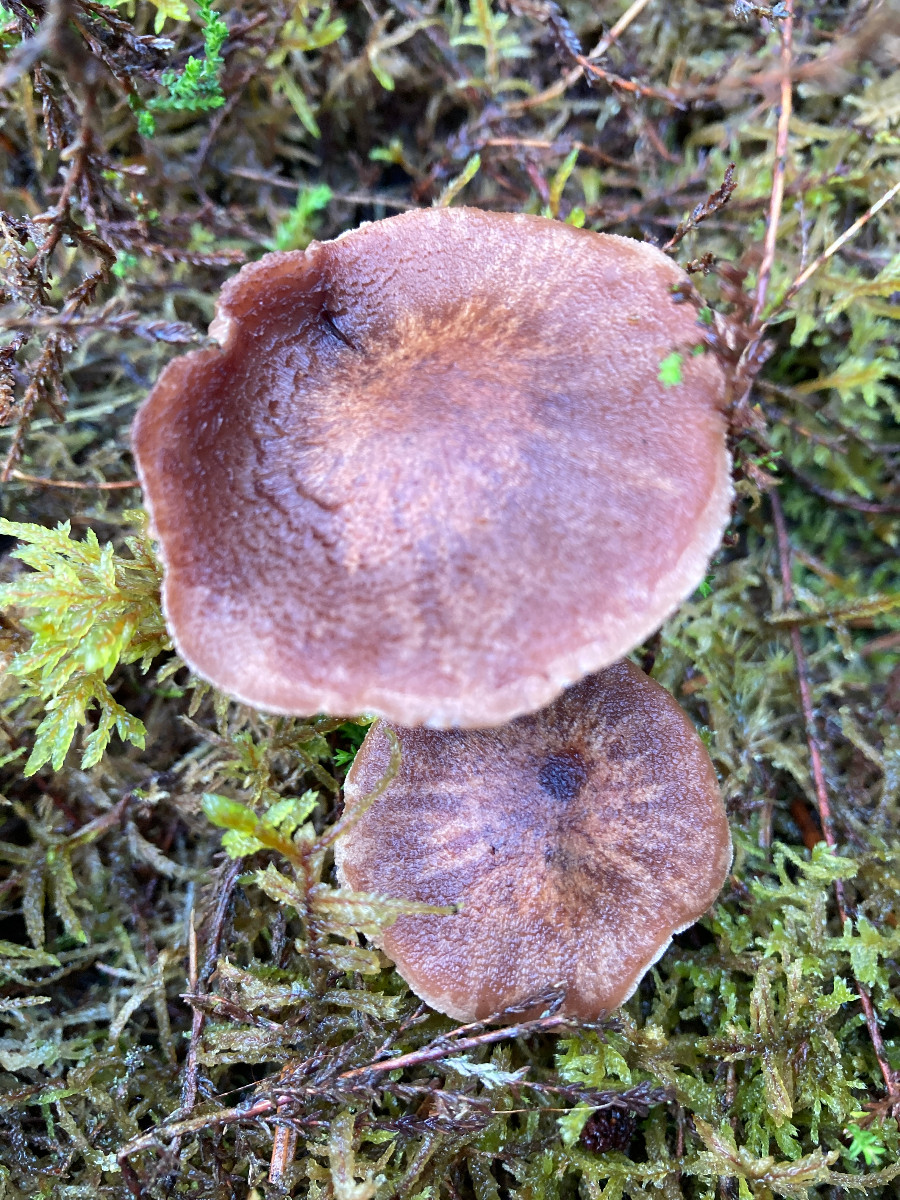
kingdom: Fungi
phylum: Basidiomycota
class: Agaricomycetes
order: Agaricales
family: Cortinariaceae
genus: Cortinarius
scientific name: Cortinarius ectypus
